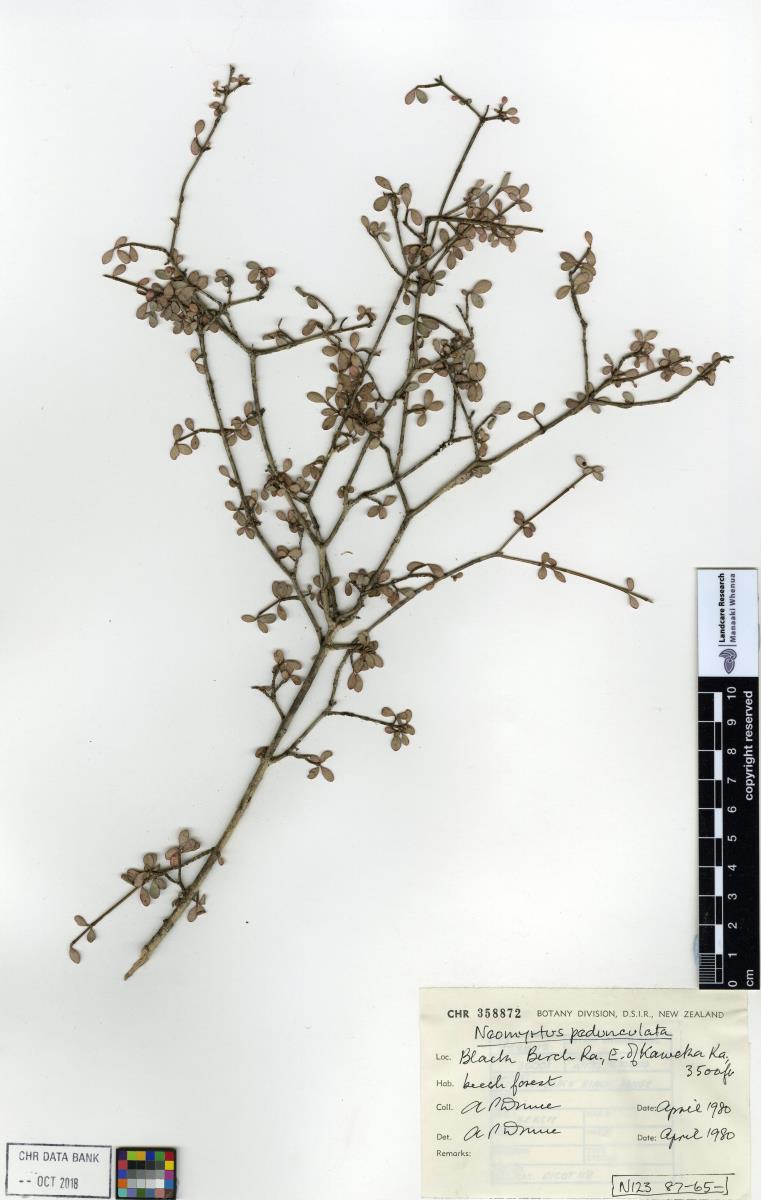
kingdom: Plantae
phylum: Tracheophyta
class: Magnoliopsida
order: Myrtales
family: Myrtaceae
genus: Neomyrtus
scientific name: Neomyrtus pedunculata
